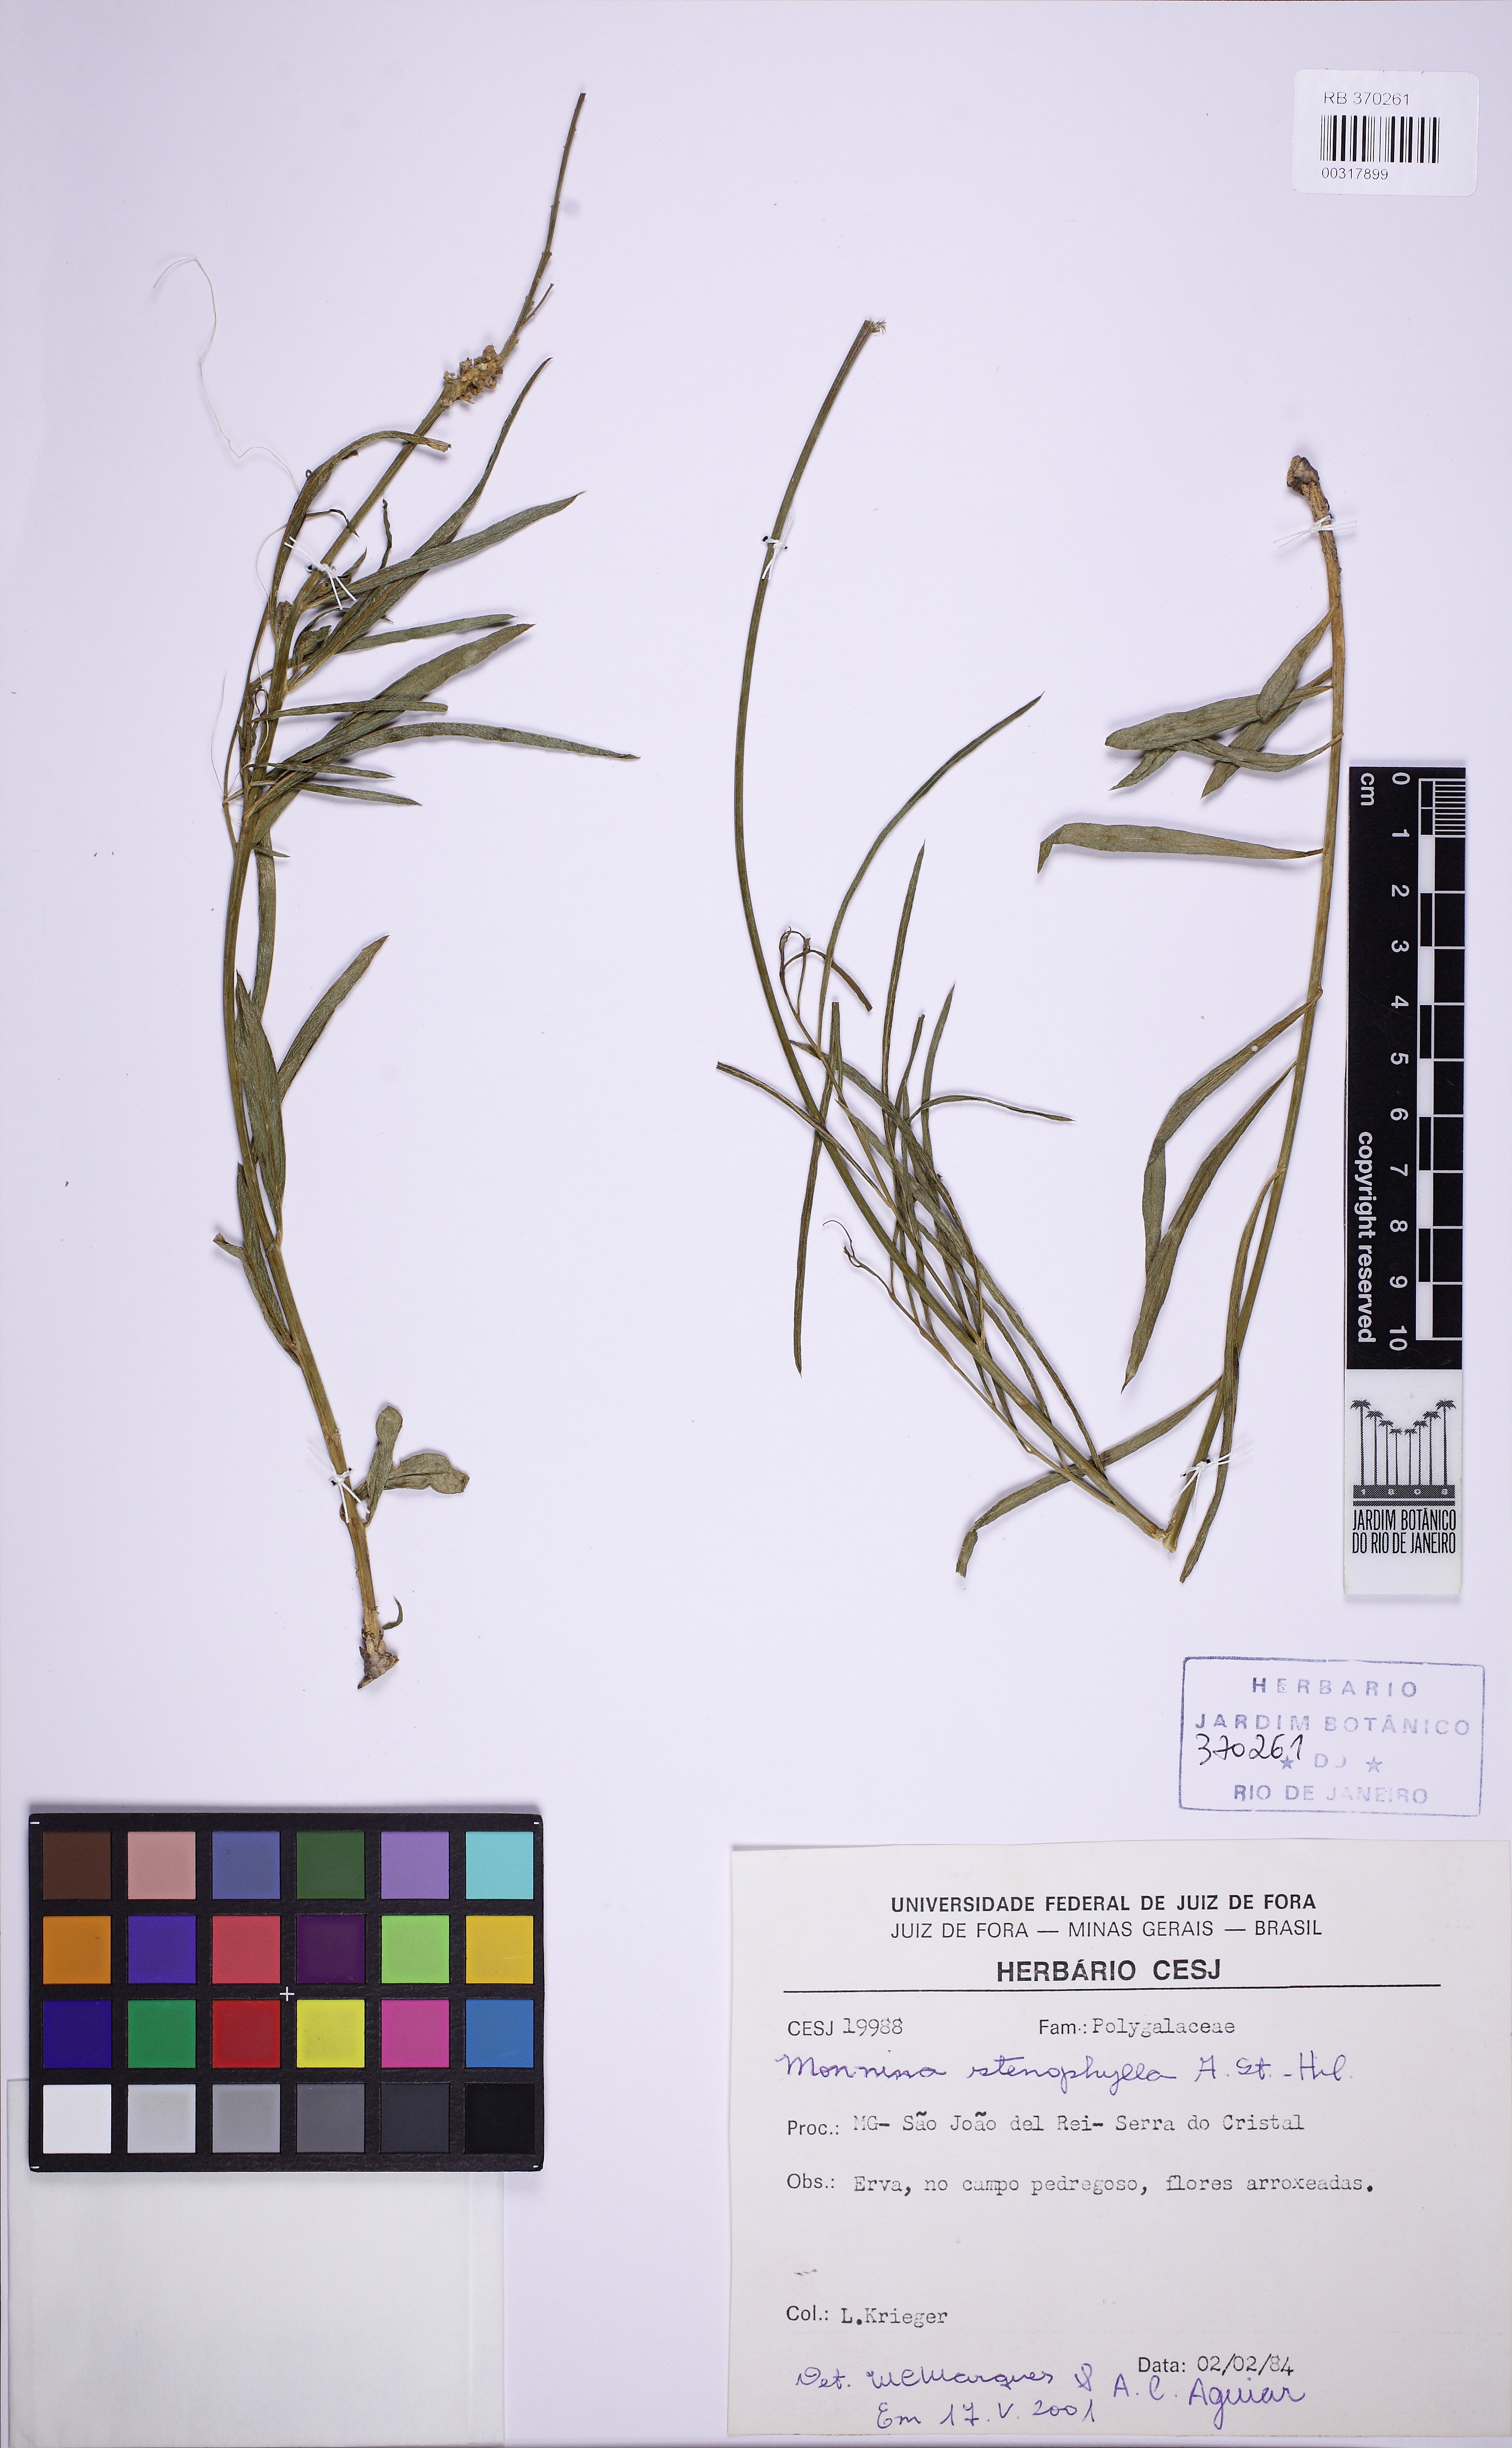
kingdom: Plantae
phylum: Tracheophyta
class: Magnoliopsida
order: Fabales
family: Polygalaceae
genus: Monnina
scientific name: Monnina stenophylla
